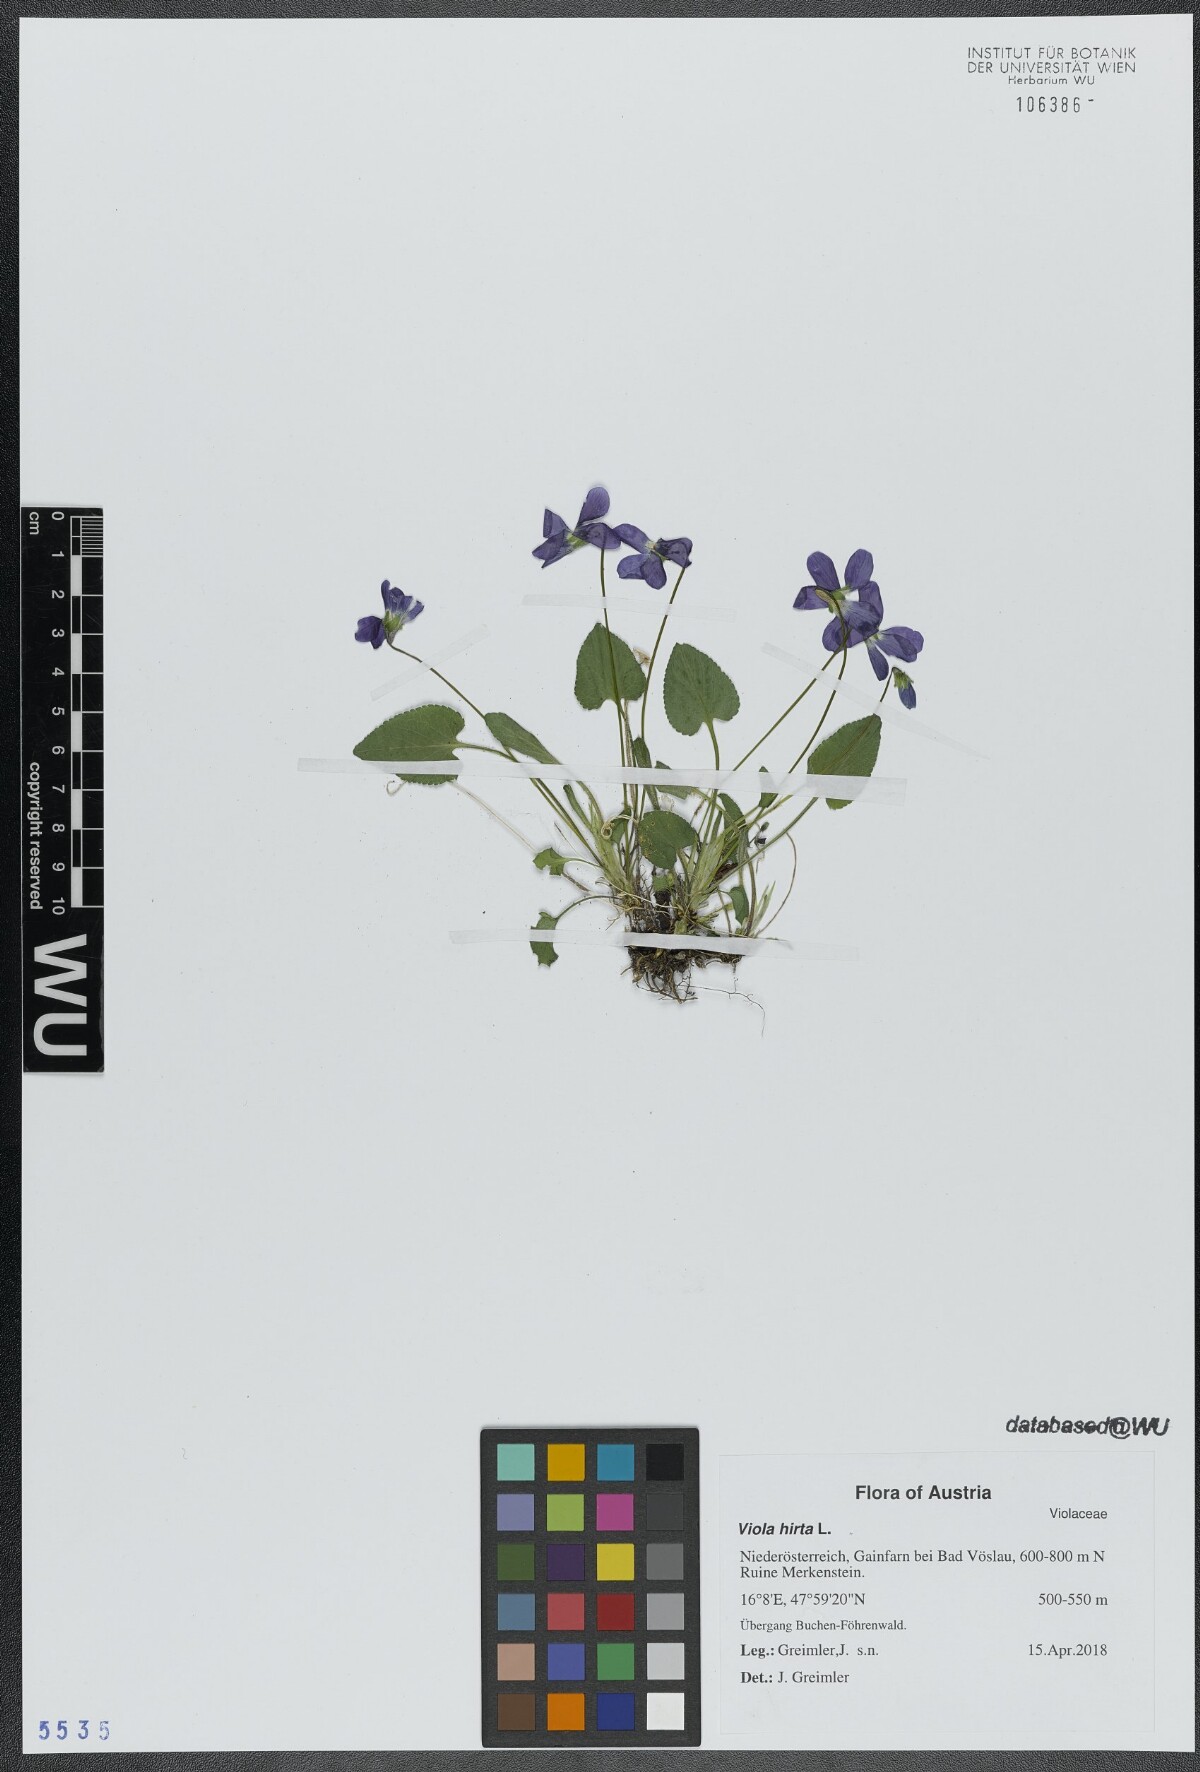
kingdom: Plantae
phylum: Tracheophyta
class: Magnoliopsida
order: Malpighiales
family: Violaceae
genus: Viola
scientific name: Viola hirta
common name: Hairy violet
